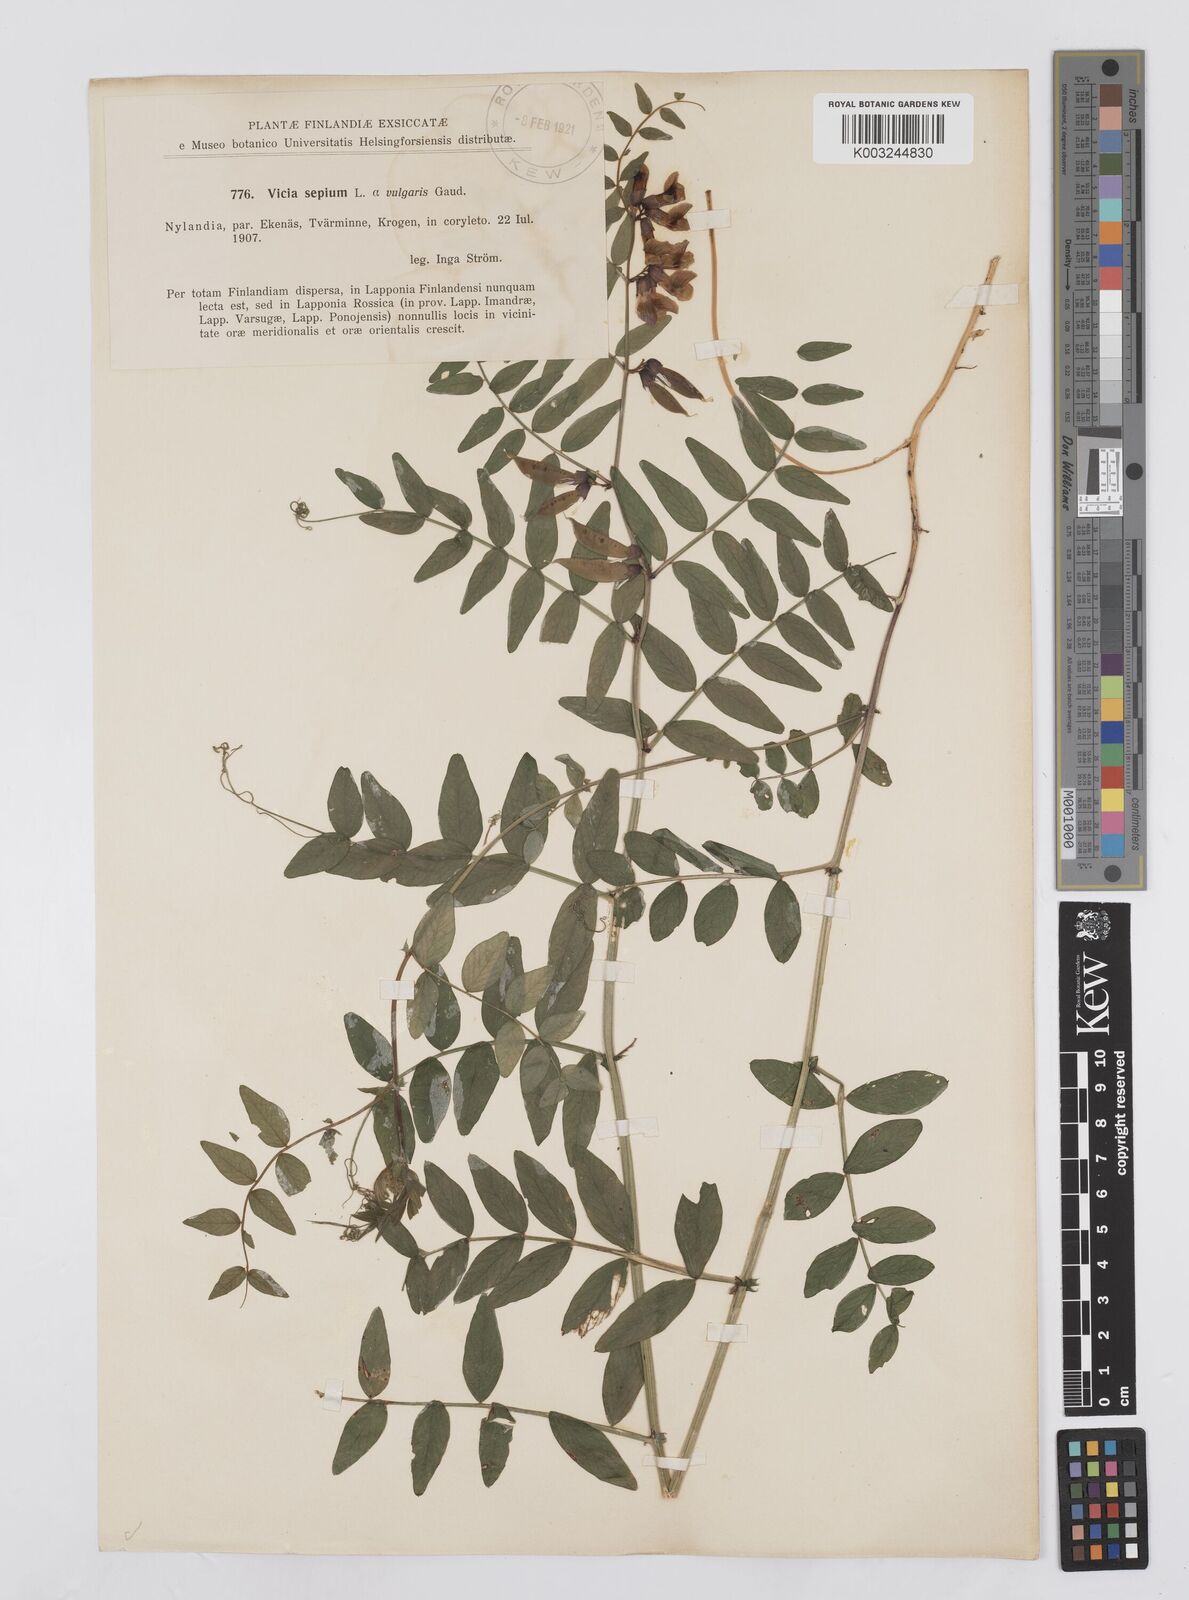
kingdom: Plantae
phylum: Tracheophyta
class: Magnoliopsida
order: Fabales
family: Fabaceae
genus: Vicia
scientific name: Vicia sepium
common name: Bush vetch
